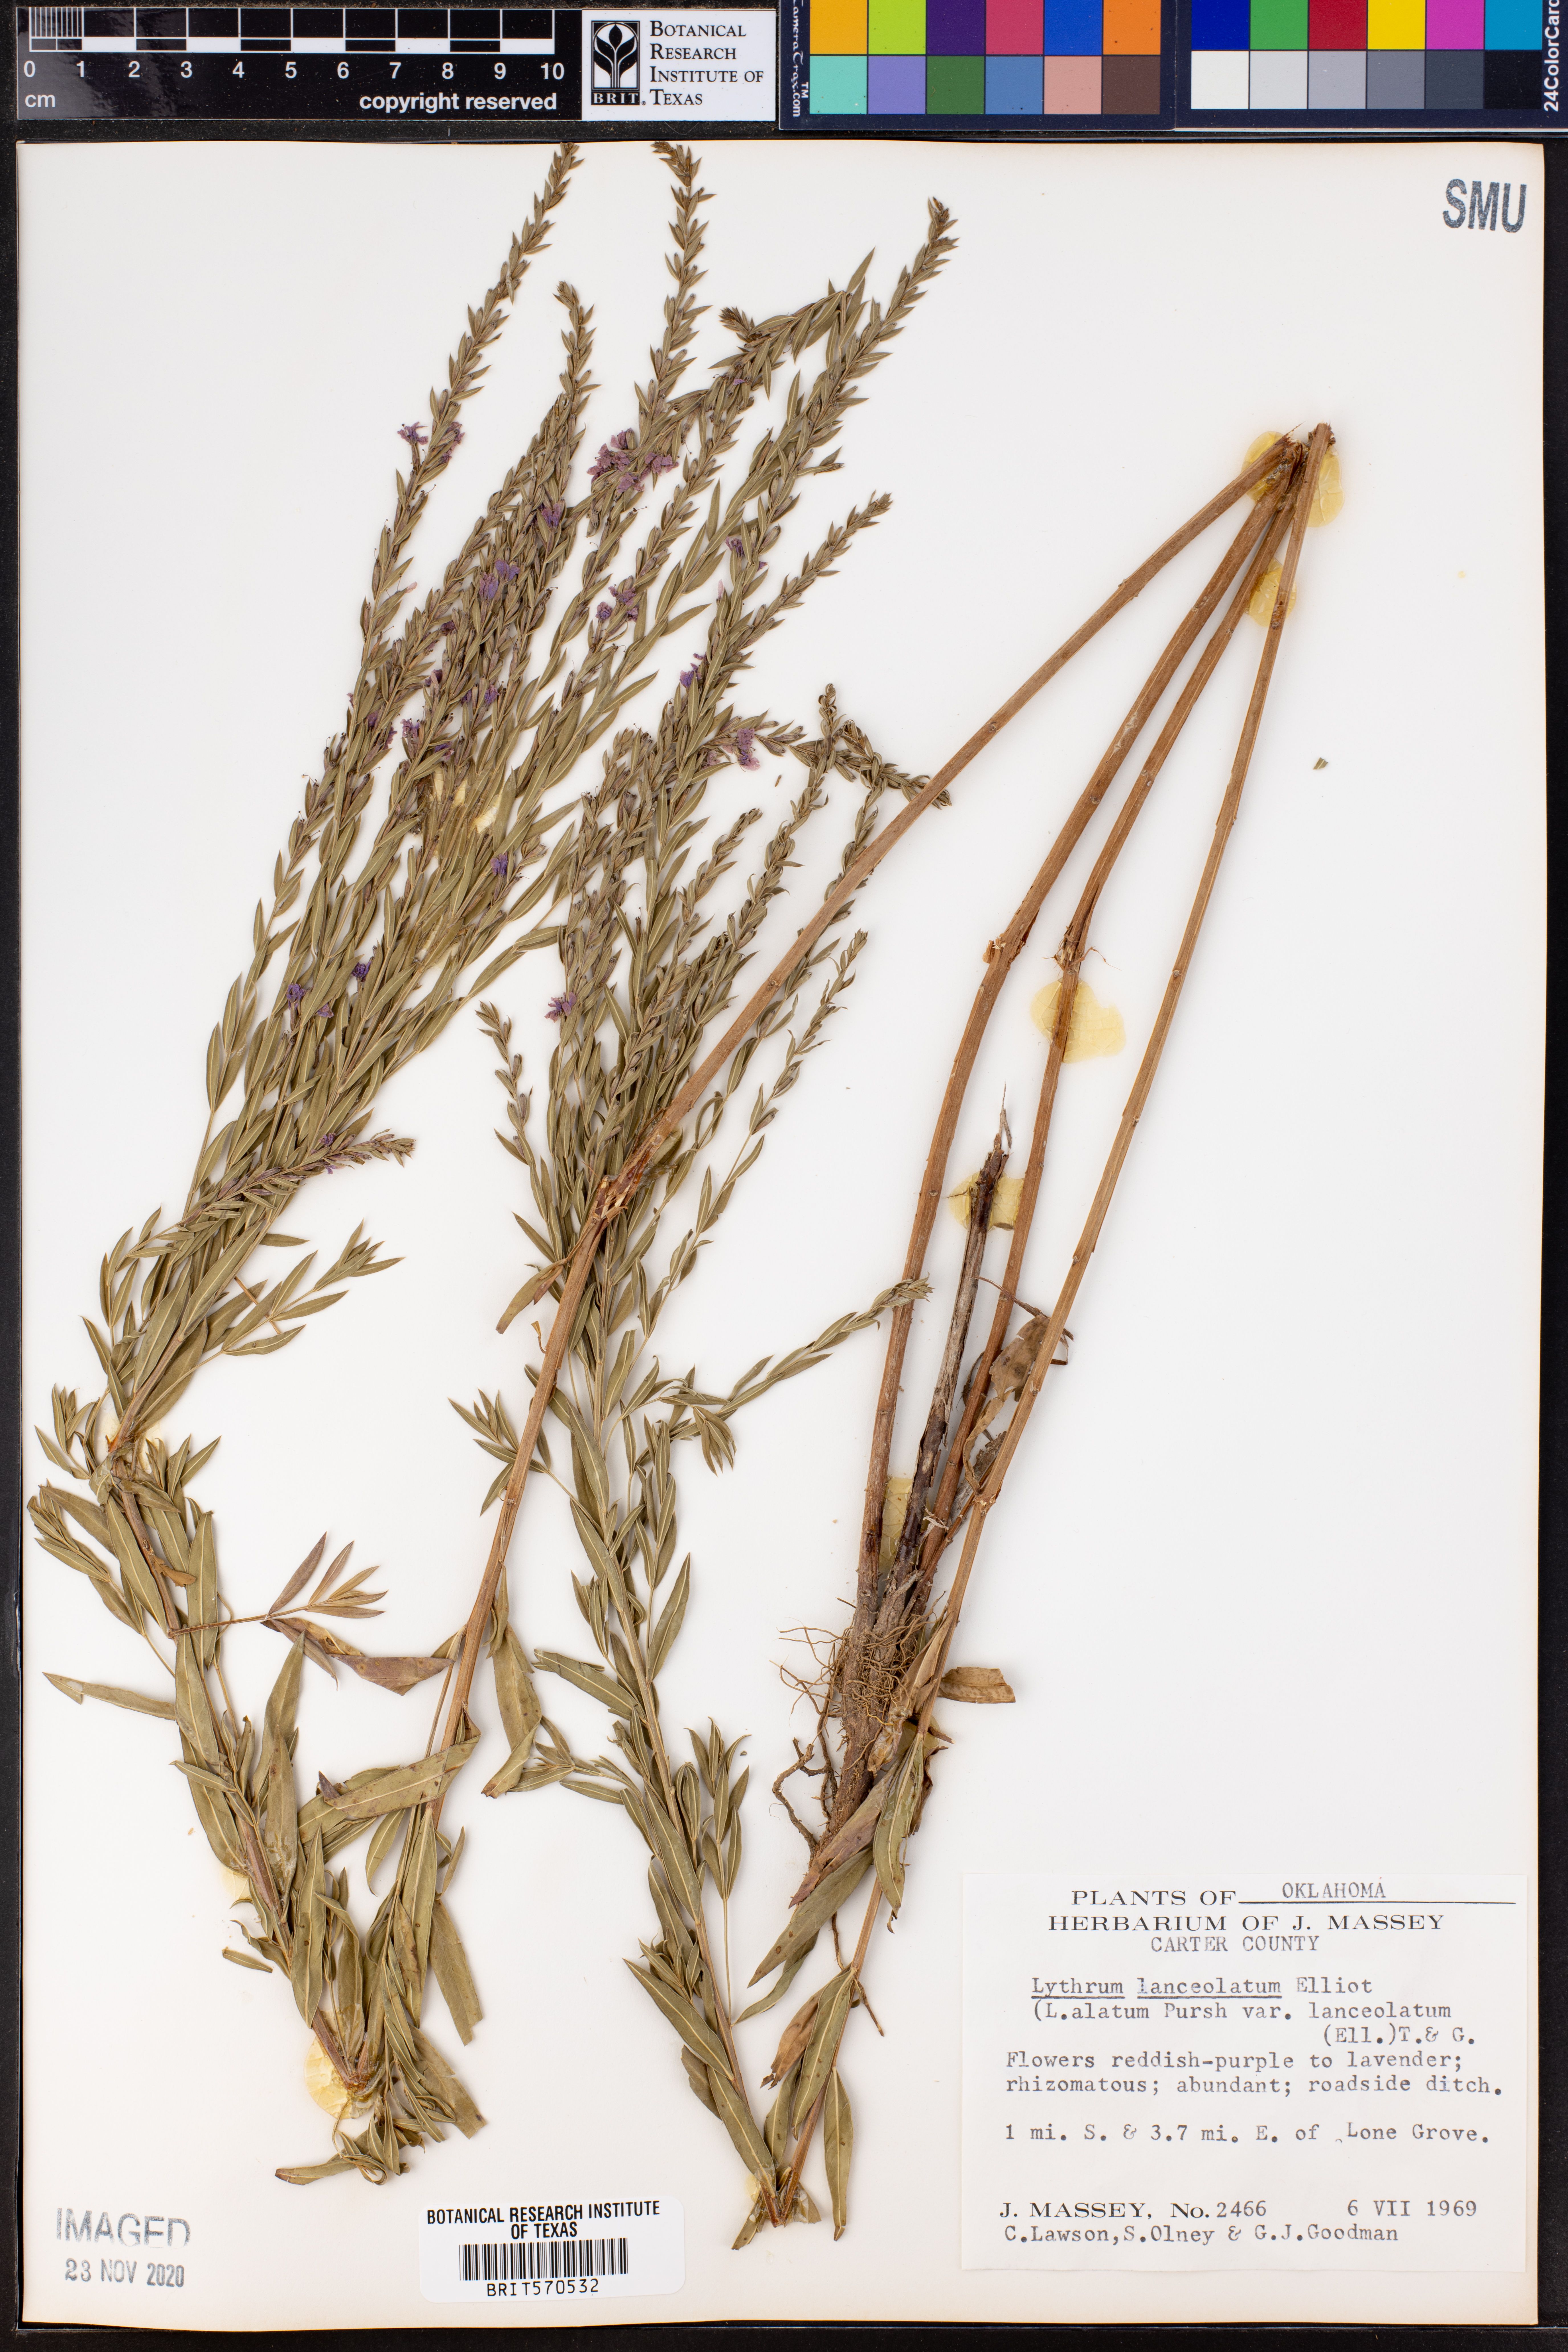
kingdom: Plantae
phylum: Tracheophyta
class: Magnoliopsida
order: Myrtales
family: Lythraceae
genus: Lythrum
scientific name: Lythrum alatum
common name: Winged loosestrife
